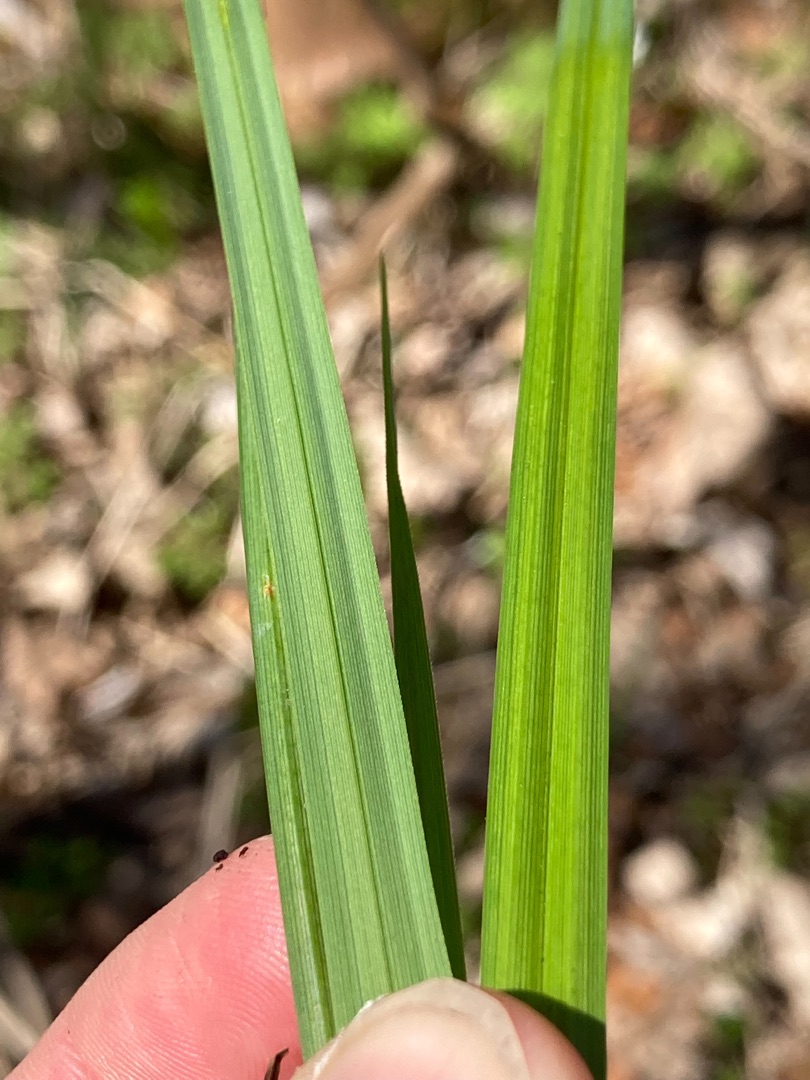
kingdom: Plantae
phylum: Tracheophyta
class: Liliopsida
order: Poales
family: Cyperaceae
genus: Carex
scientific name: Carex acutiformis
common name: Kær-star
